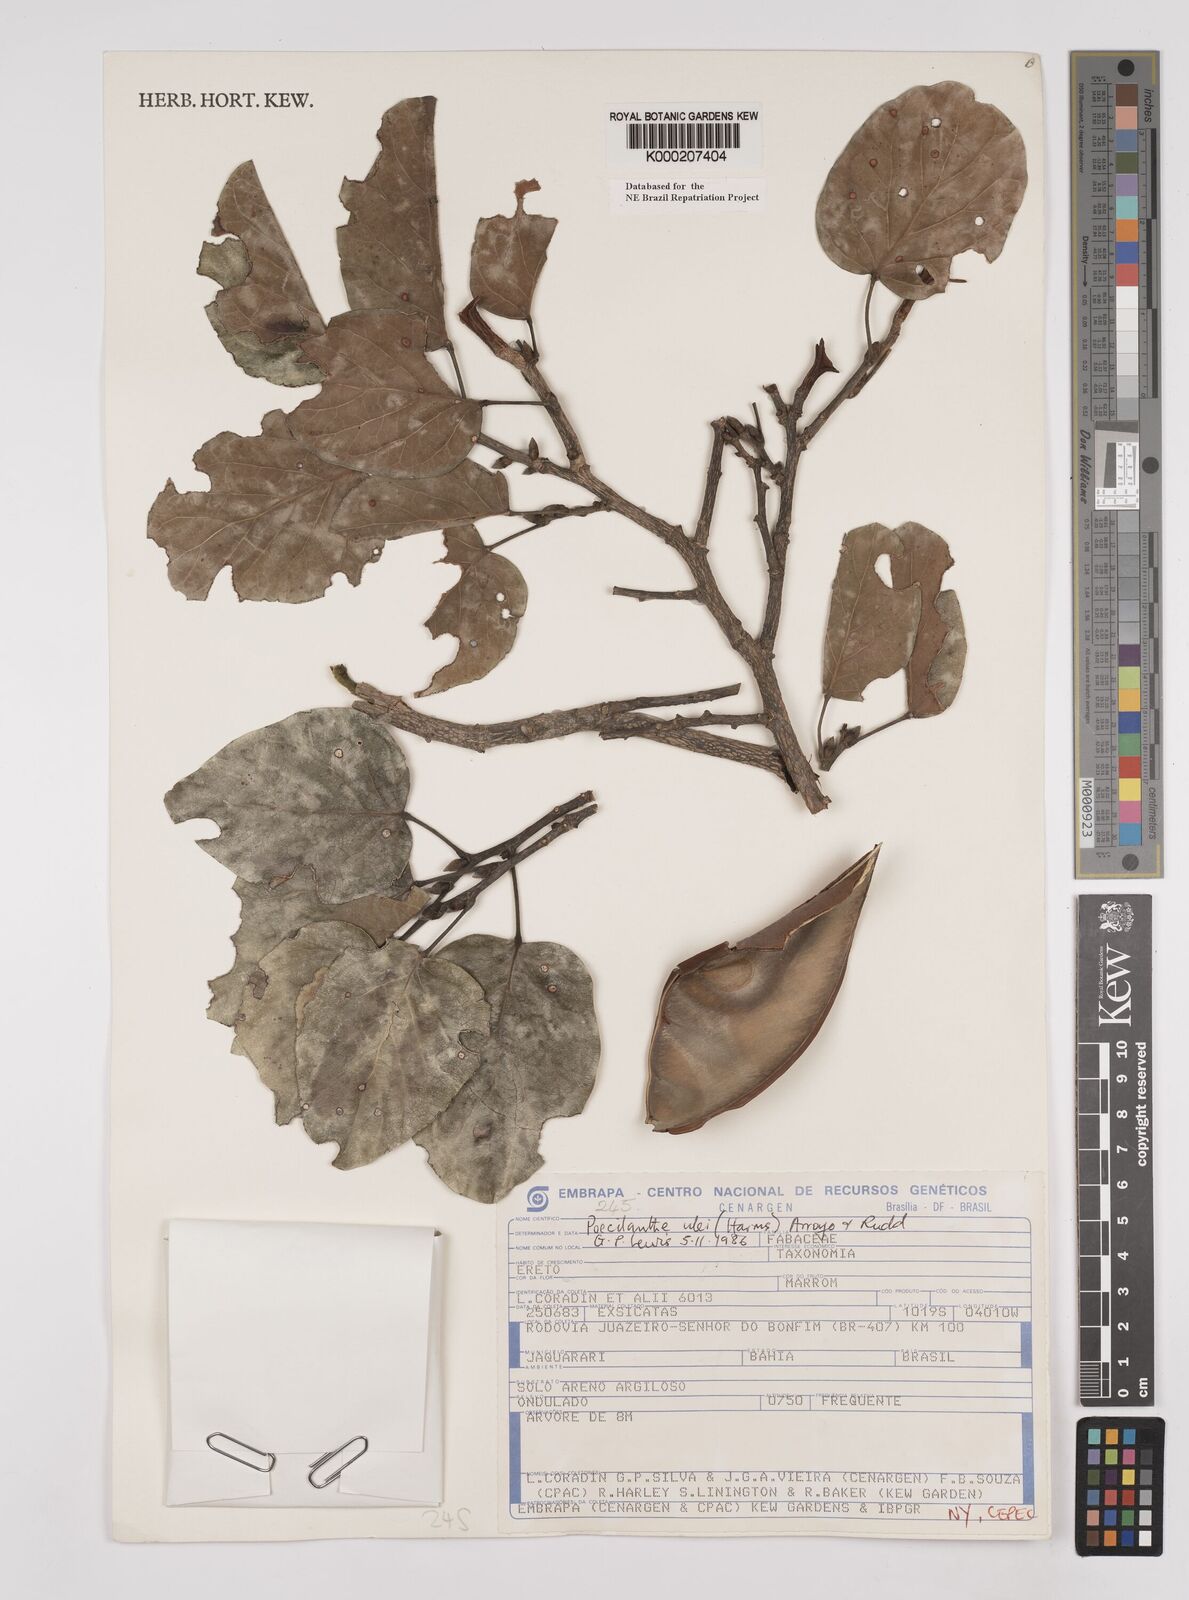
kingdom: Plantae
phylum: Tracheophyta
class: Magnoliopsida
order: Fabales
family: Fabaceae
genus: Poecilanthe
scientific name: Poecilanthe ulei
